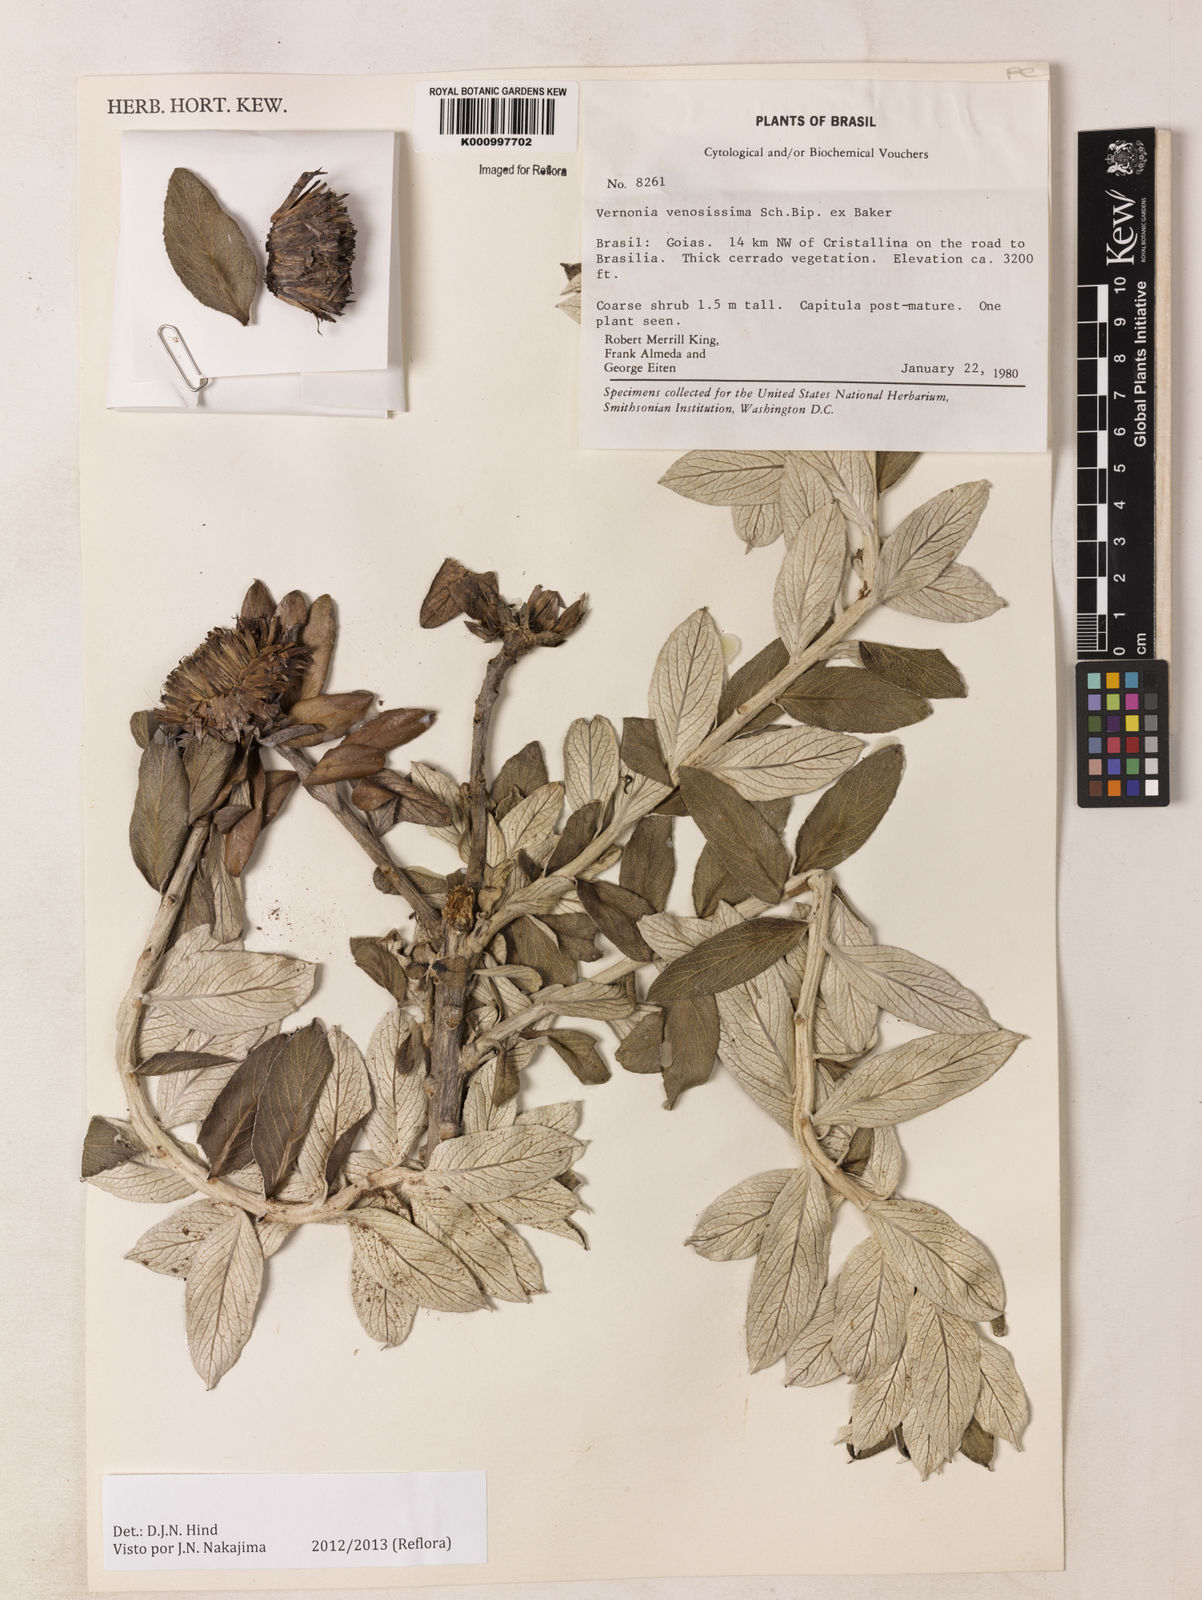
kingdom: Plantae
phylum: Tracheophyta
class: Magnoliopsida
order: Asterales
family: Asteraceae
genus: Lessingianthus
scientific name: Lessingianthus venosissimus
